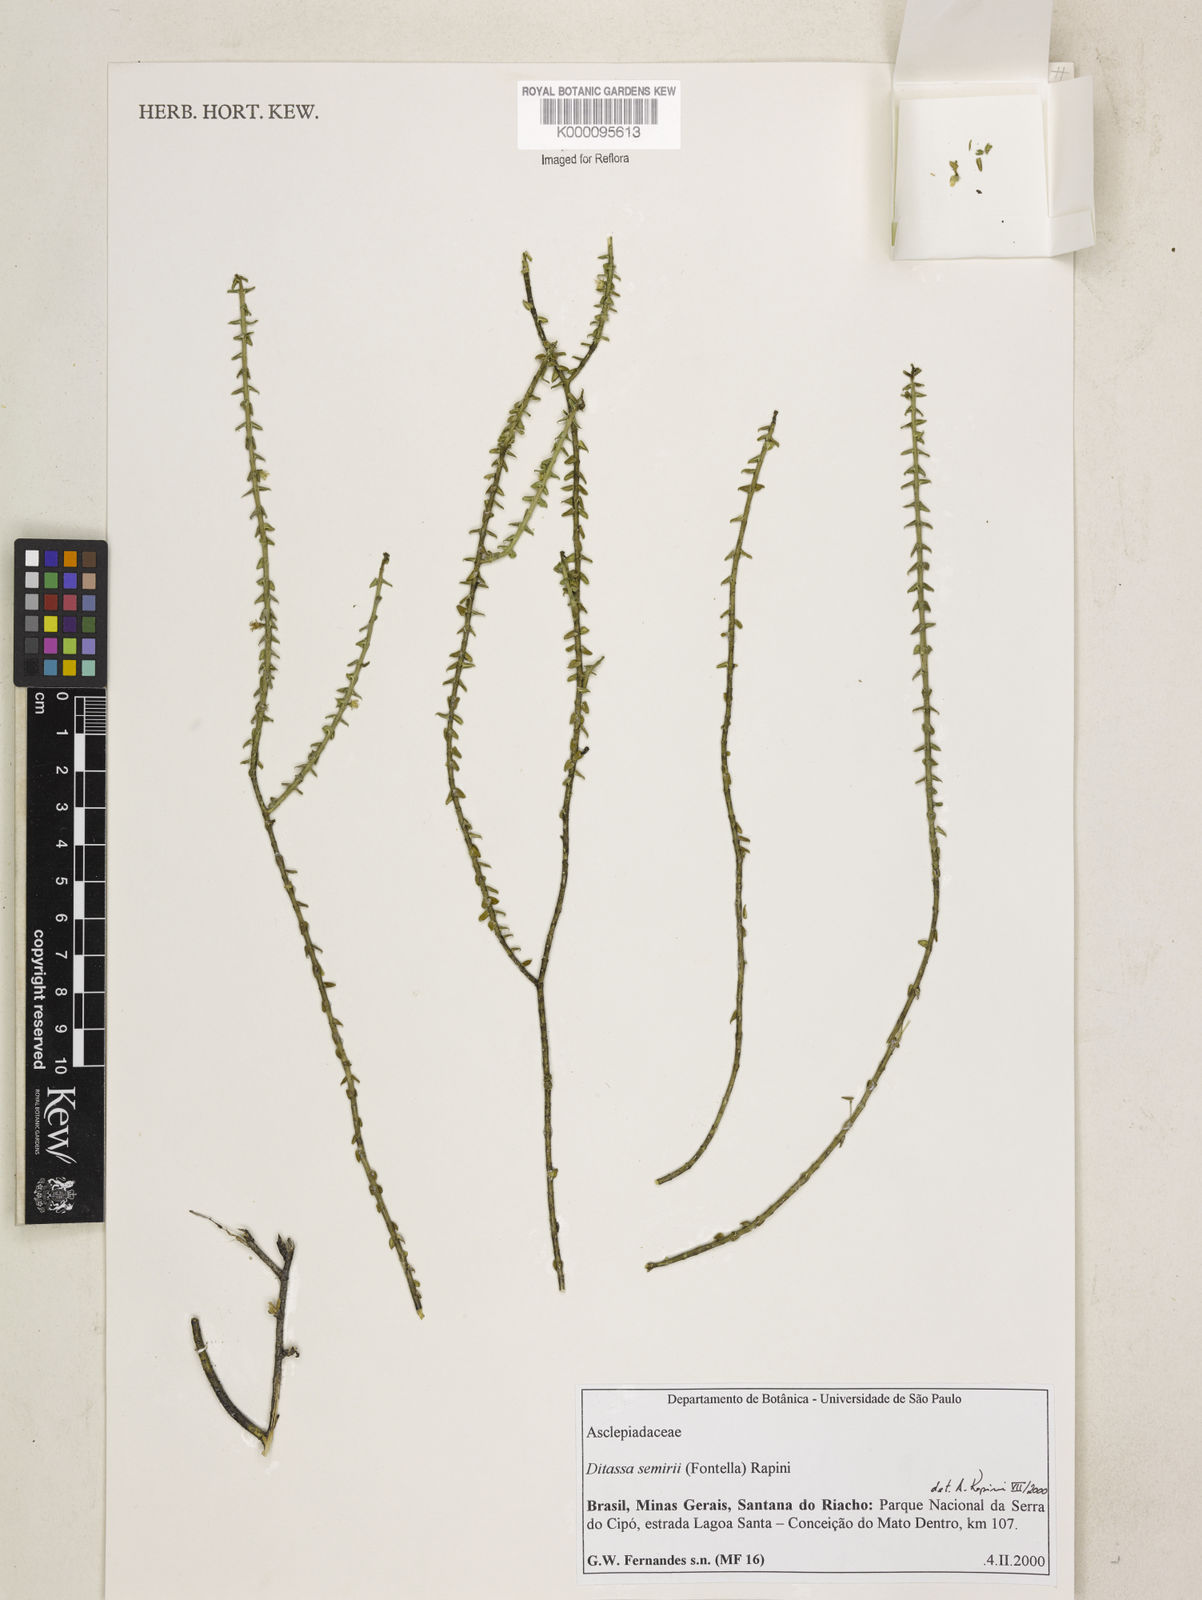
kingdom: Plantae
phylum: Tracheophyta
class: Magnoliopsida
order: Gentianales
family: Apocynaceae
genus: Minaria
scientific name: Minaria semirii
